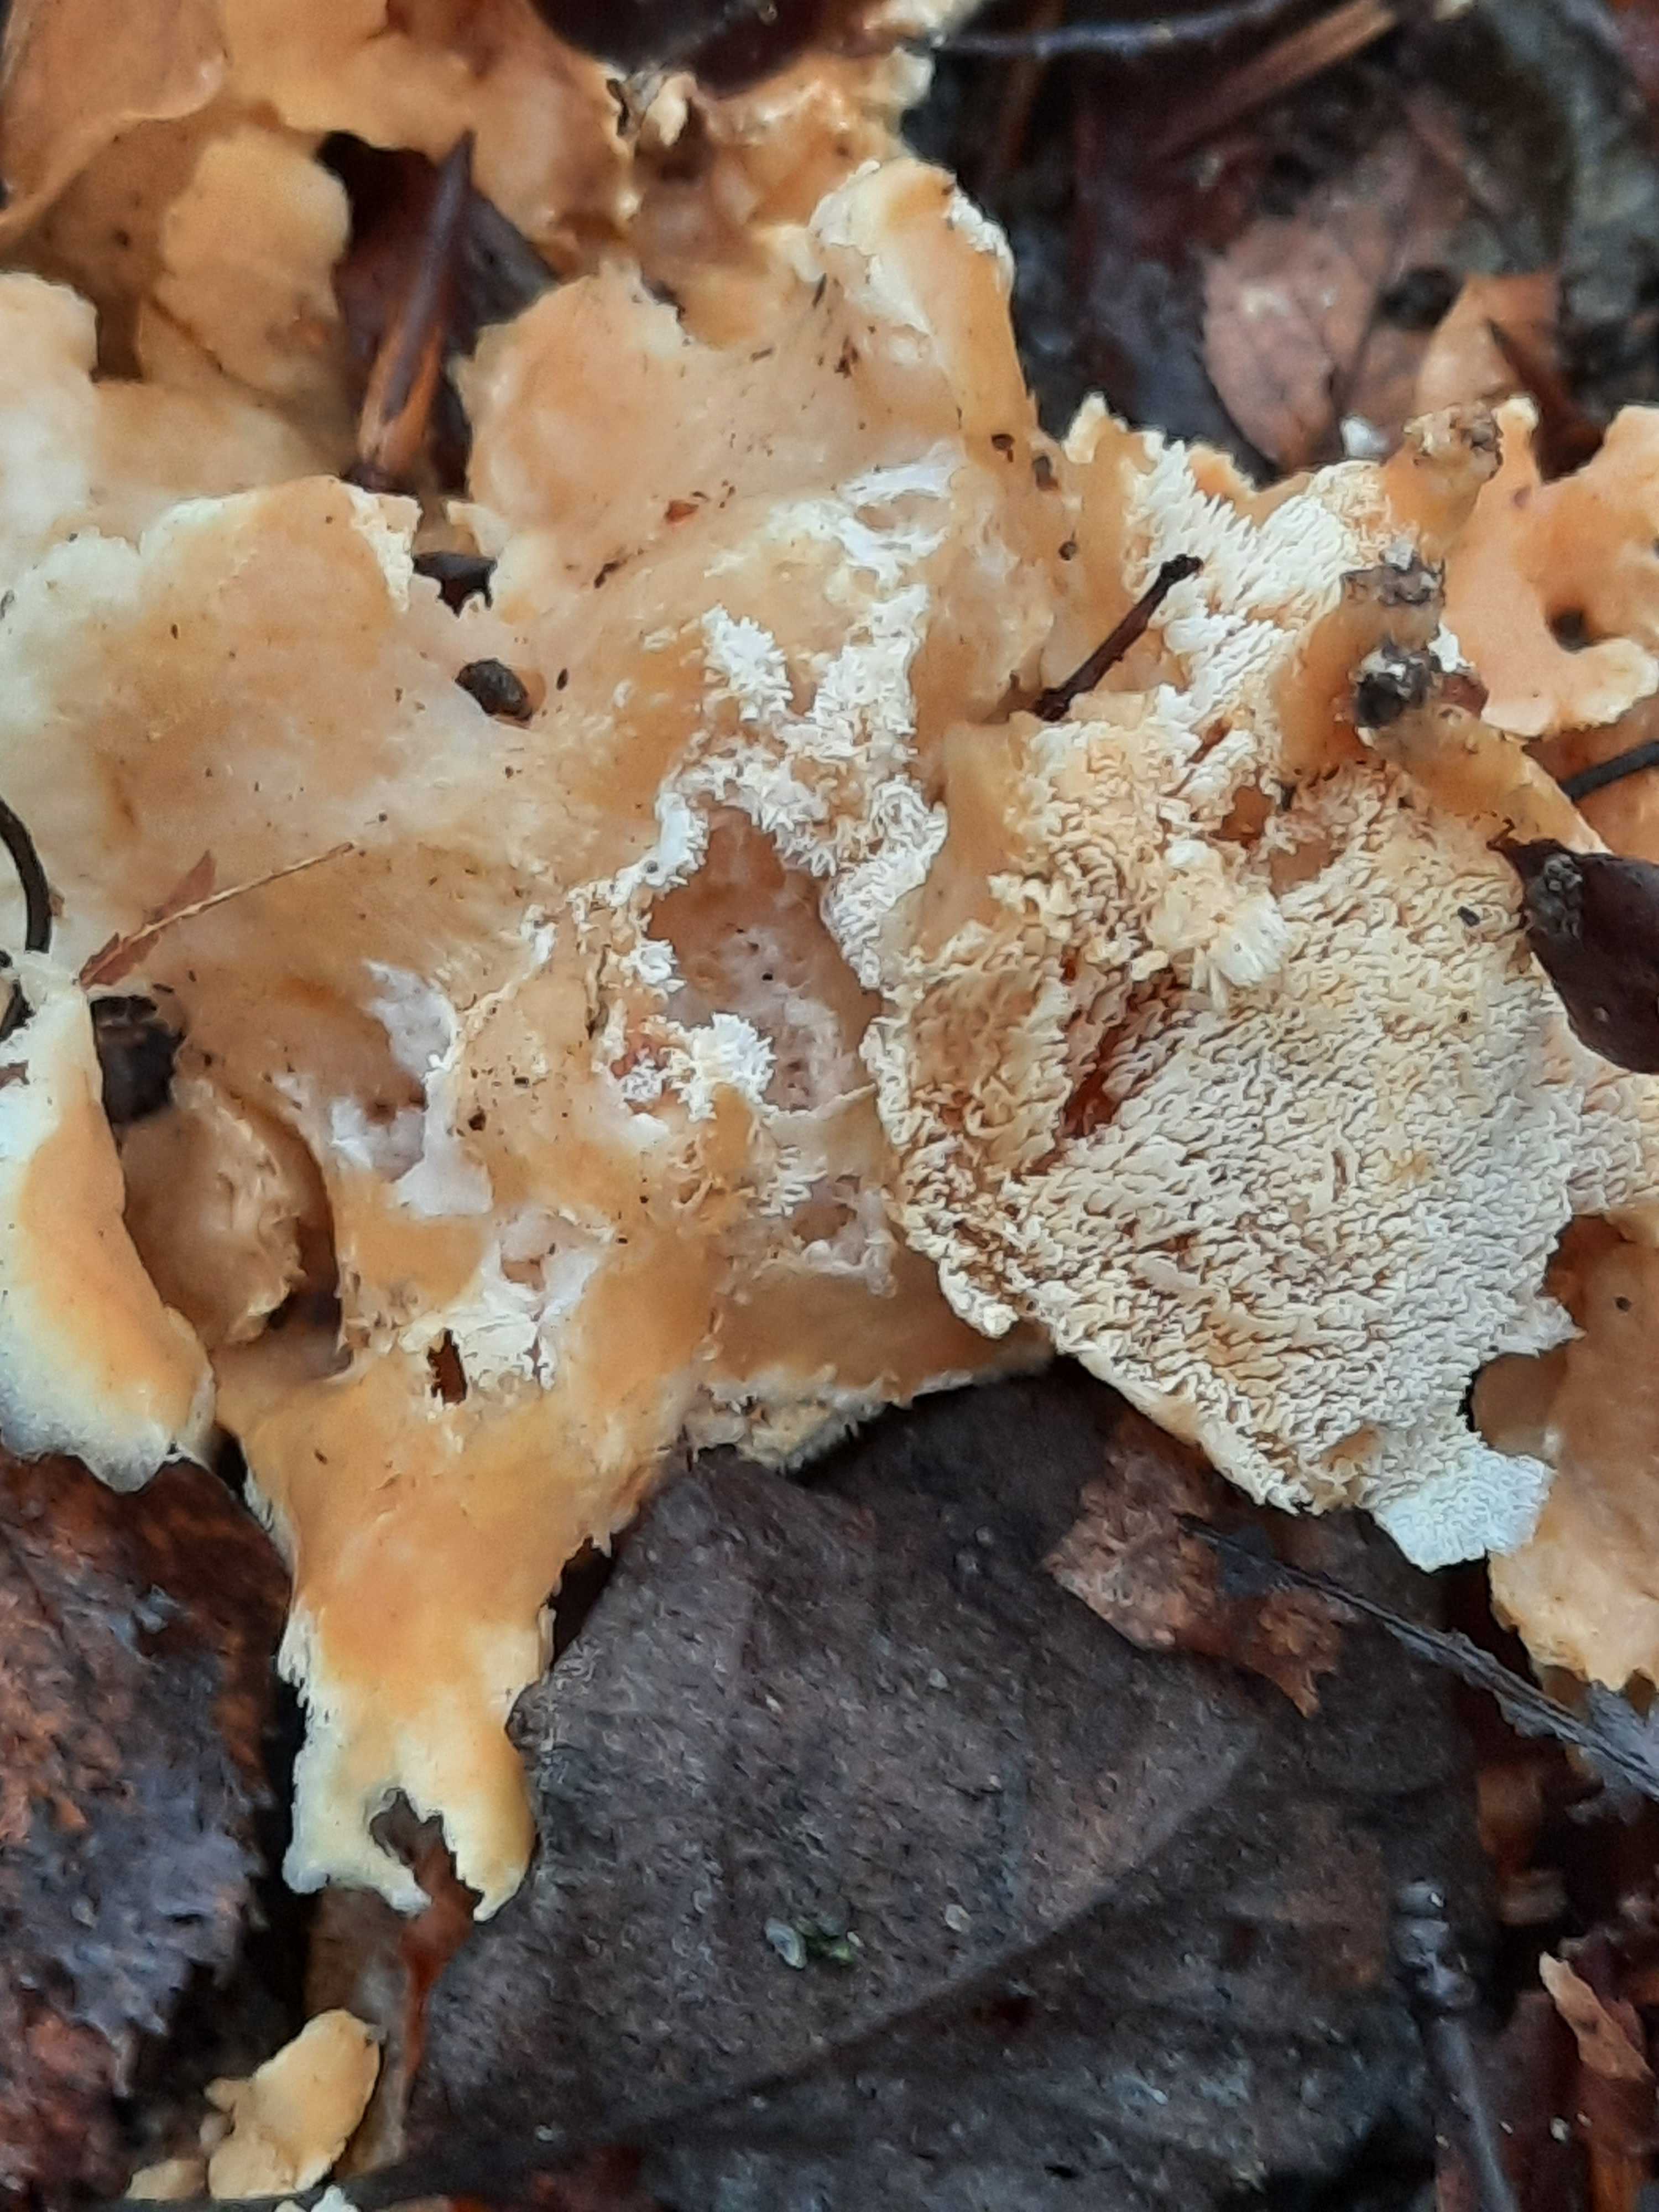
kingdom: Fungi
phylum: Basidiomycota
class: Agaricomycetes
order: Cantharellales
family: Hydnaceae
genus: Sistotrema
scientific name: Sistotrema confluens
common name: stilket kroneskorpe
